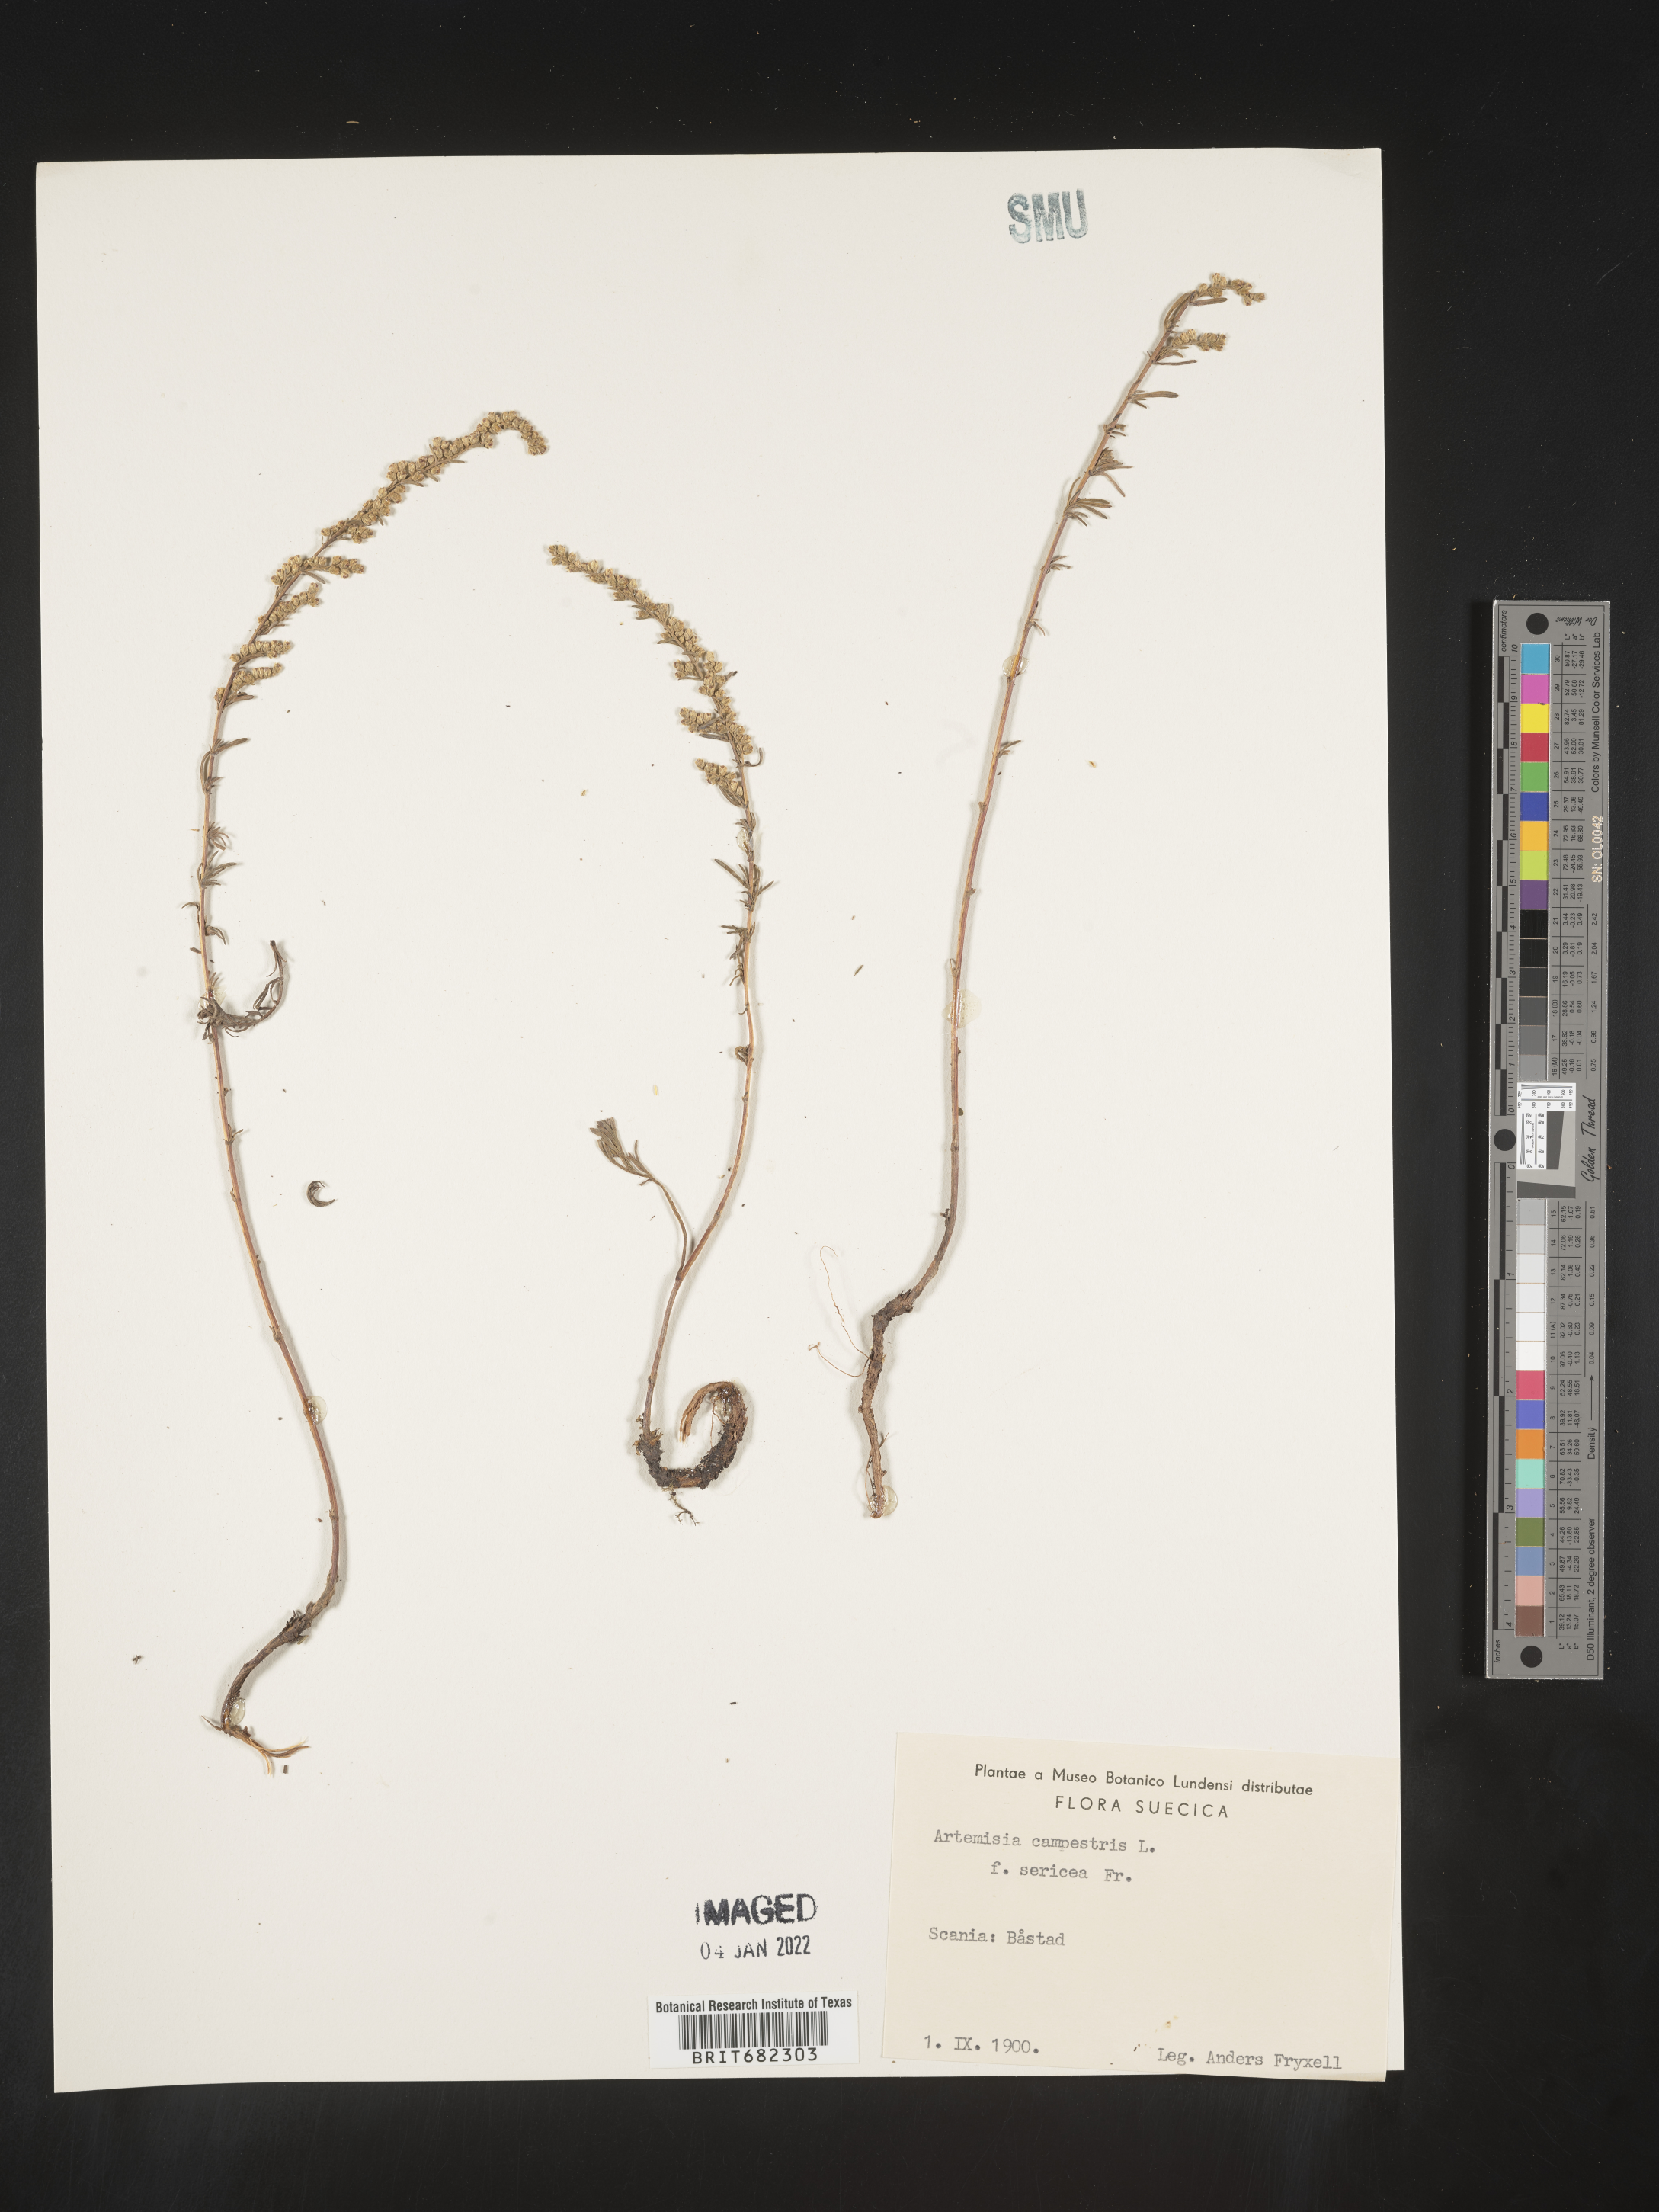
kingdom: Plantae
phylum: Tracheophyta
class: Magnoliopsida
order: Asterales
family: Asteraceae
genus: Artemisia
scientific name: Artemisia campestris
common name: Field wormwood
